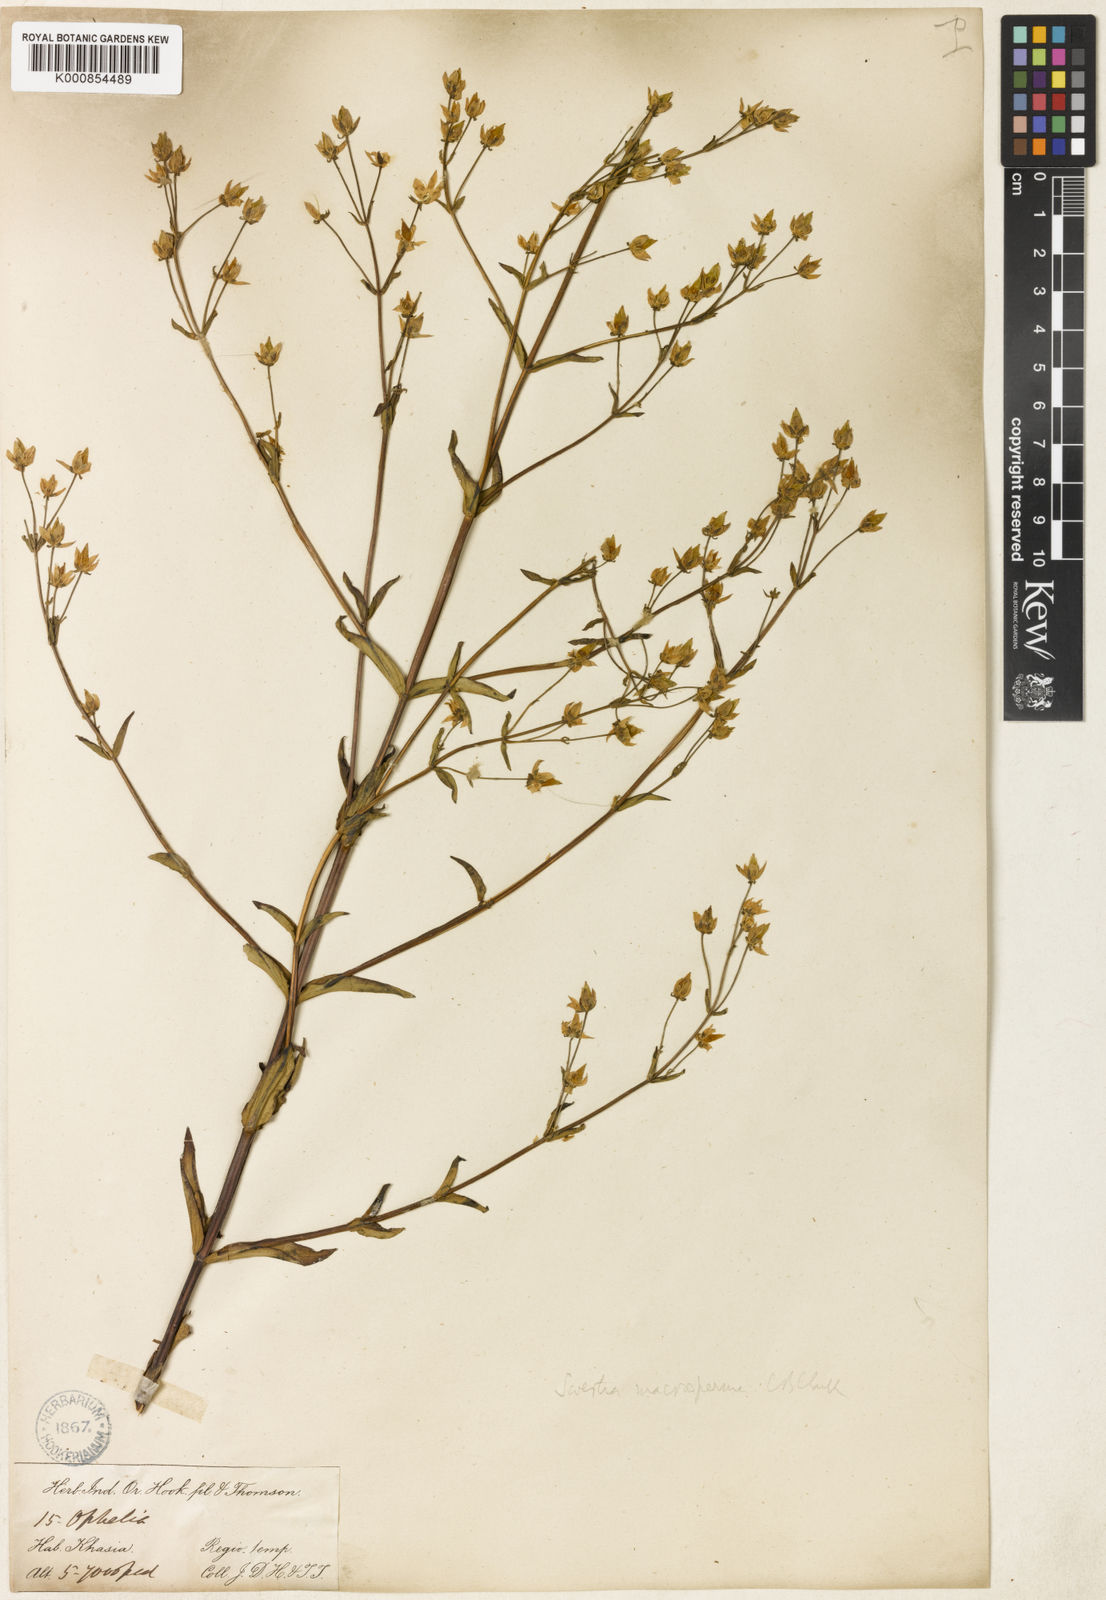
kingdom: Plantae
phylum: Tracheophyta
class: Magnoliopsida
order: Gentianales
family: Gentianaceae
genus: Swertia
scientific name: Swertia macrosperma
